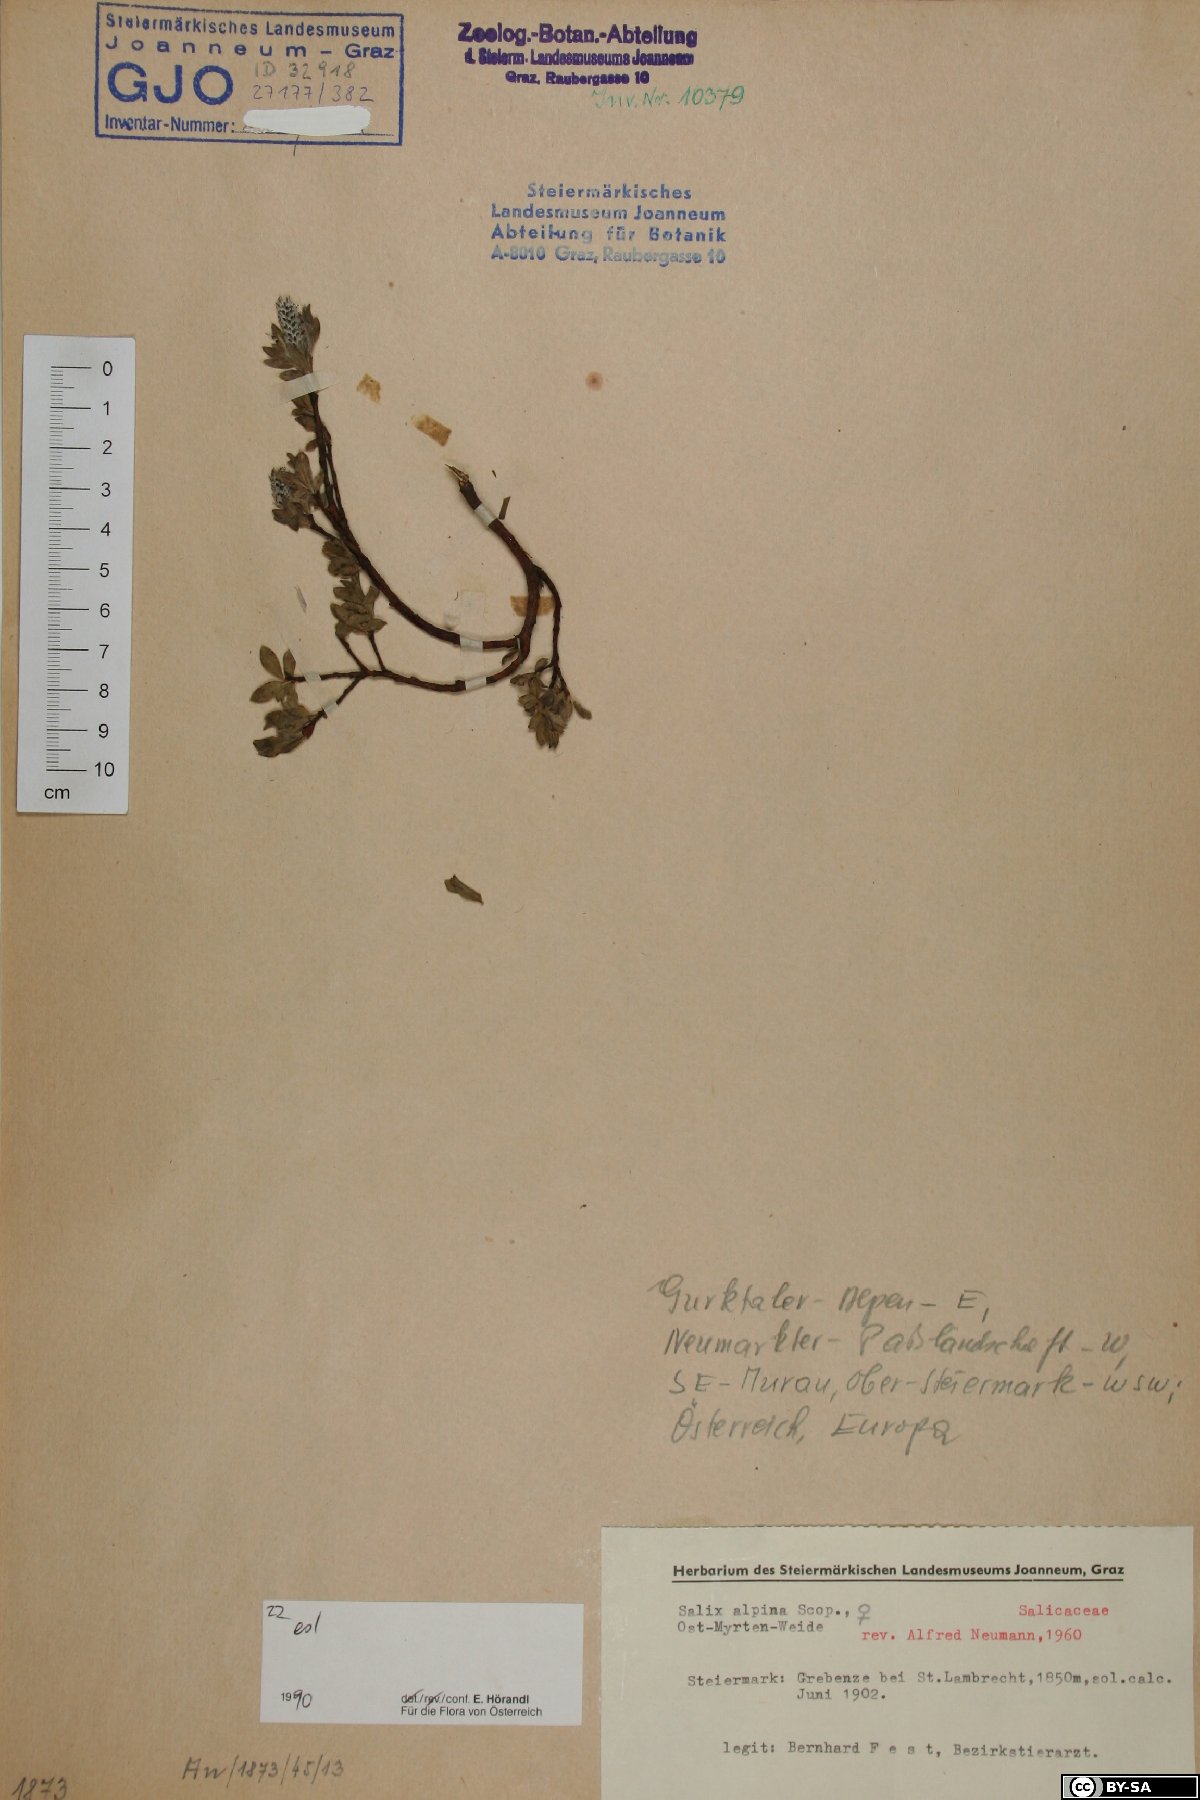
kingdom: Plantae
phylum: Tracheophyta
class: Magnoliopsida
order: Malpighiales
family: Salicaceae
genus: Salix
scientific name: Salix alpina
